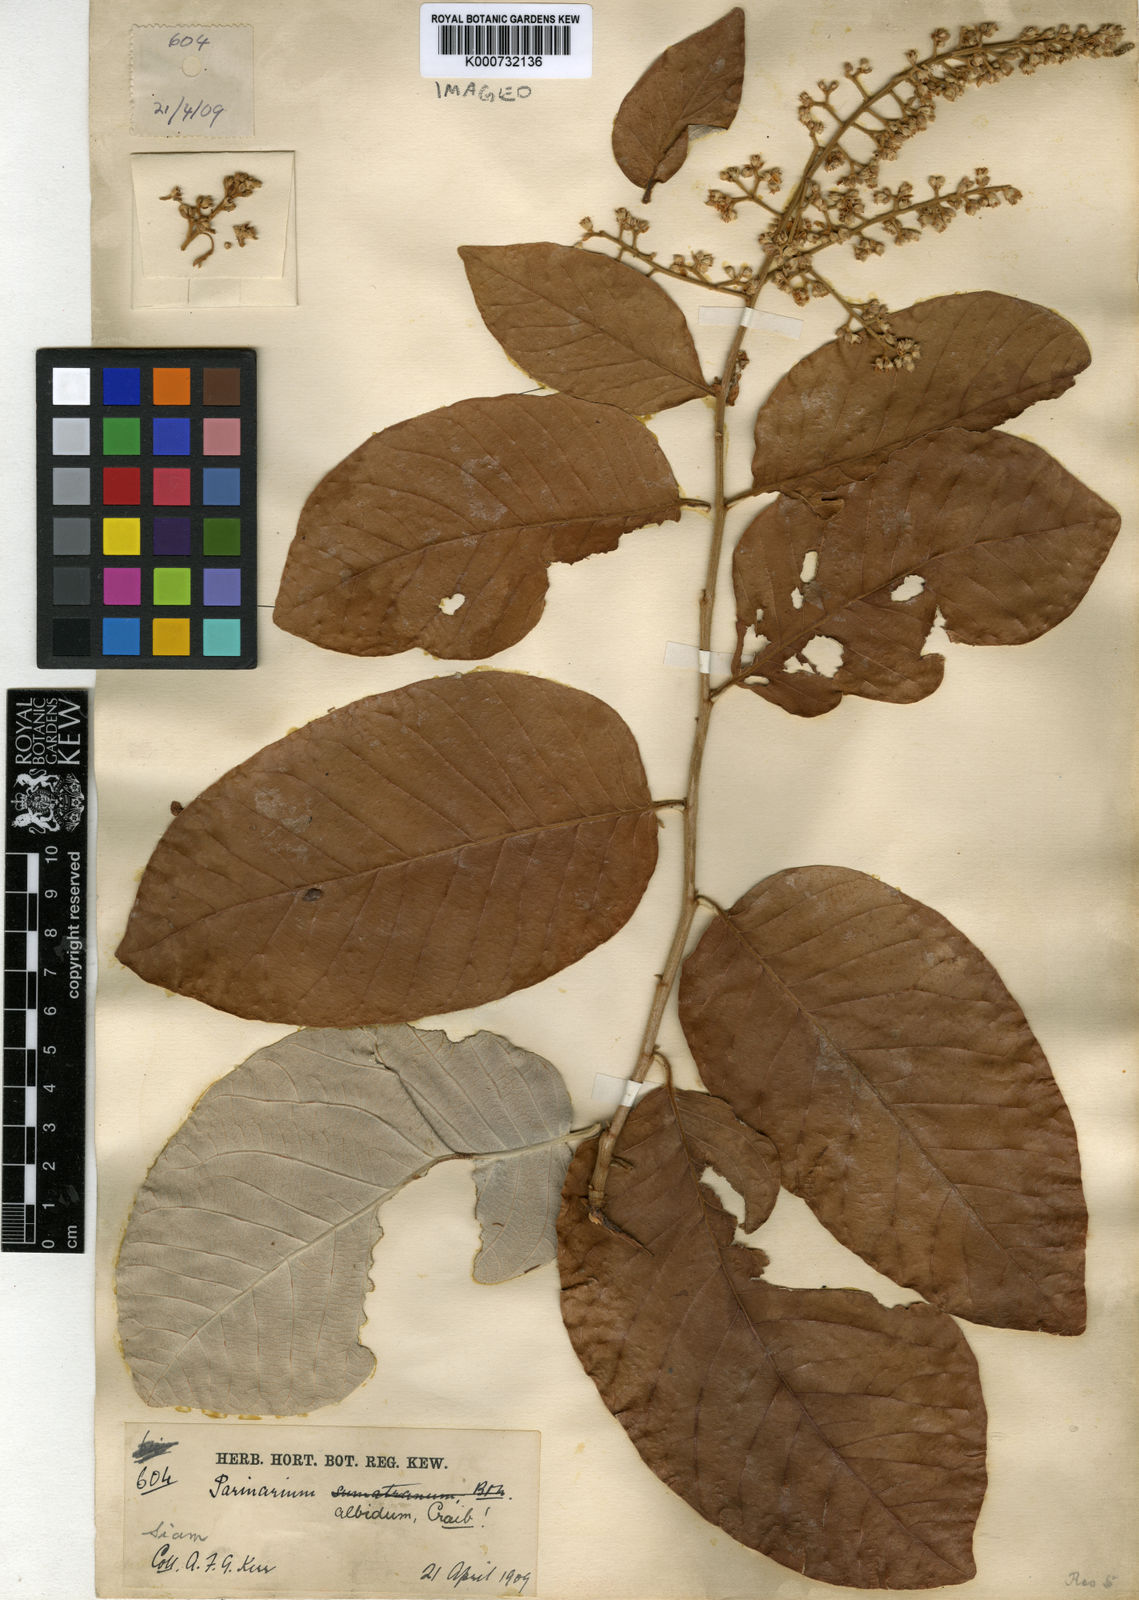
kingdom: Plantae
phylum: Tracheophyta
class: Magnoliopsida
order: Malpighiales
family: Chrysobalanaceae
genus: Parinari
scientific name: Parinari anamensis
